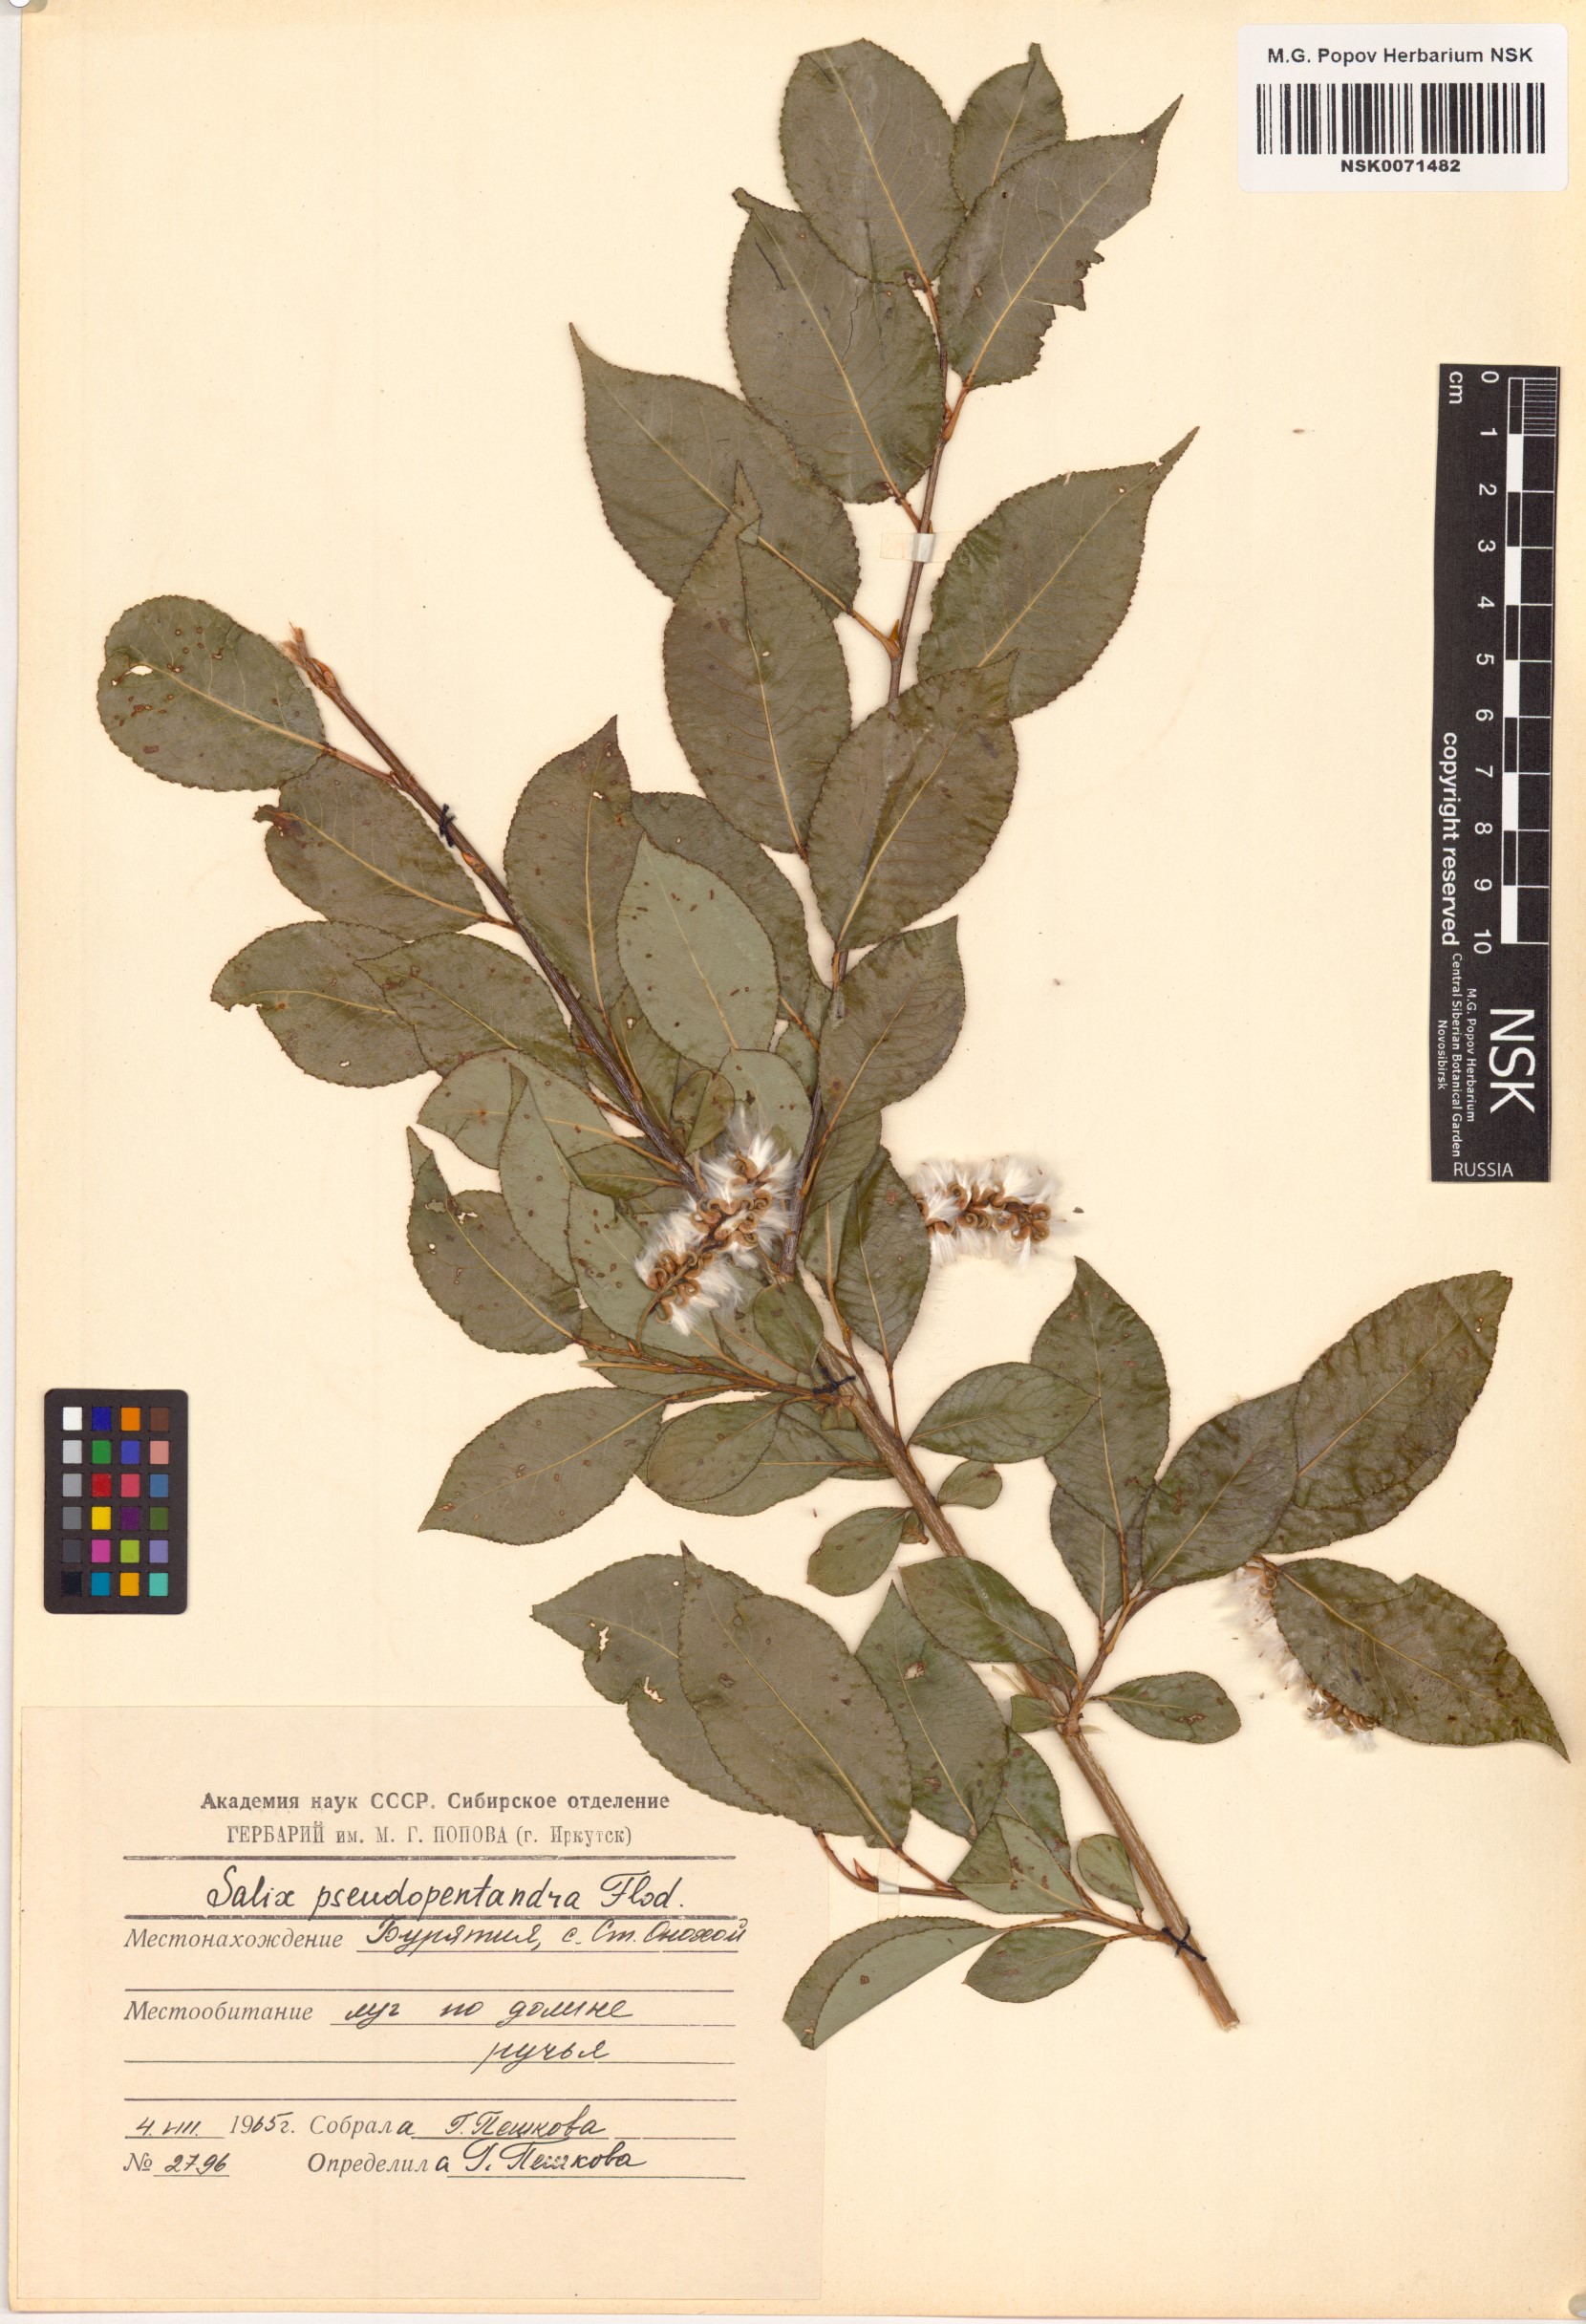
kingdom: Plantae
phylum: Tracheophyta
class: Magnoliopsida
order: Malpighiales
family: Salicaceae
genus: Salix
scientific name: Salix pseudopentandra
